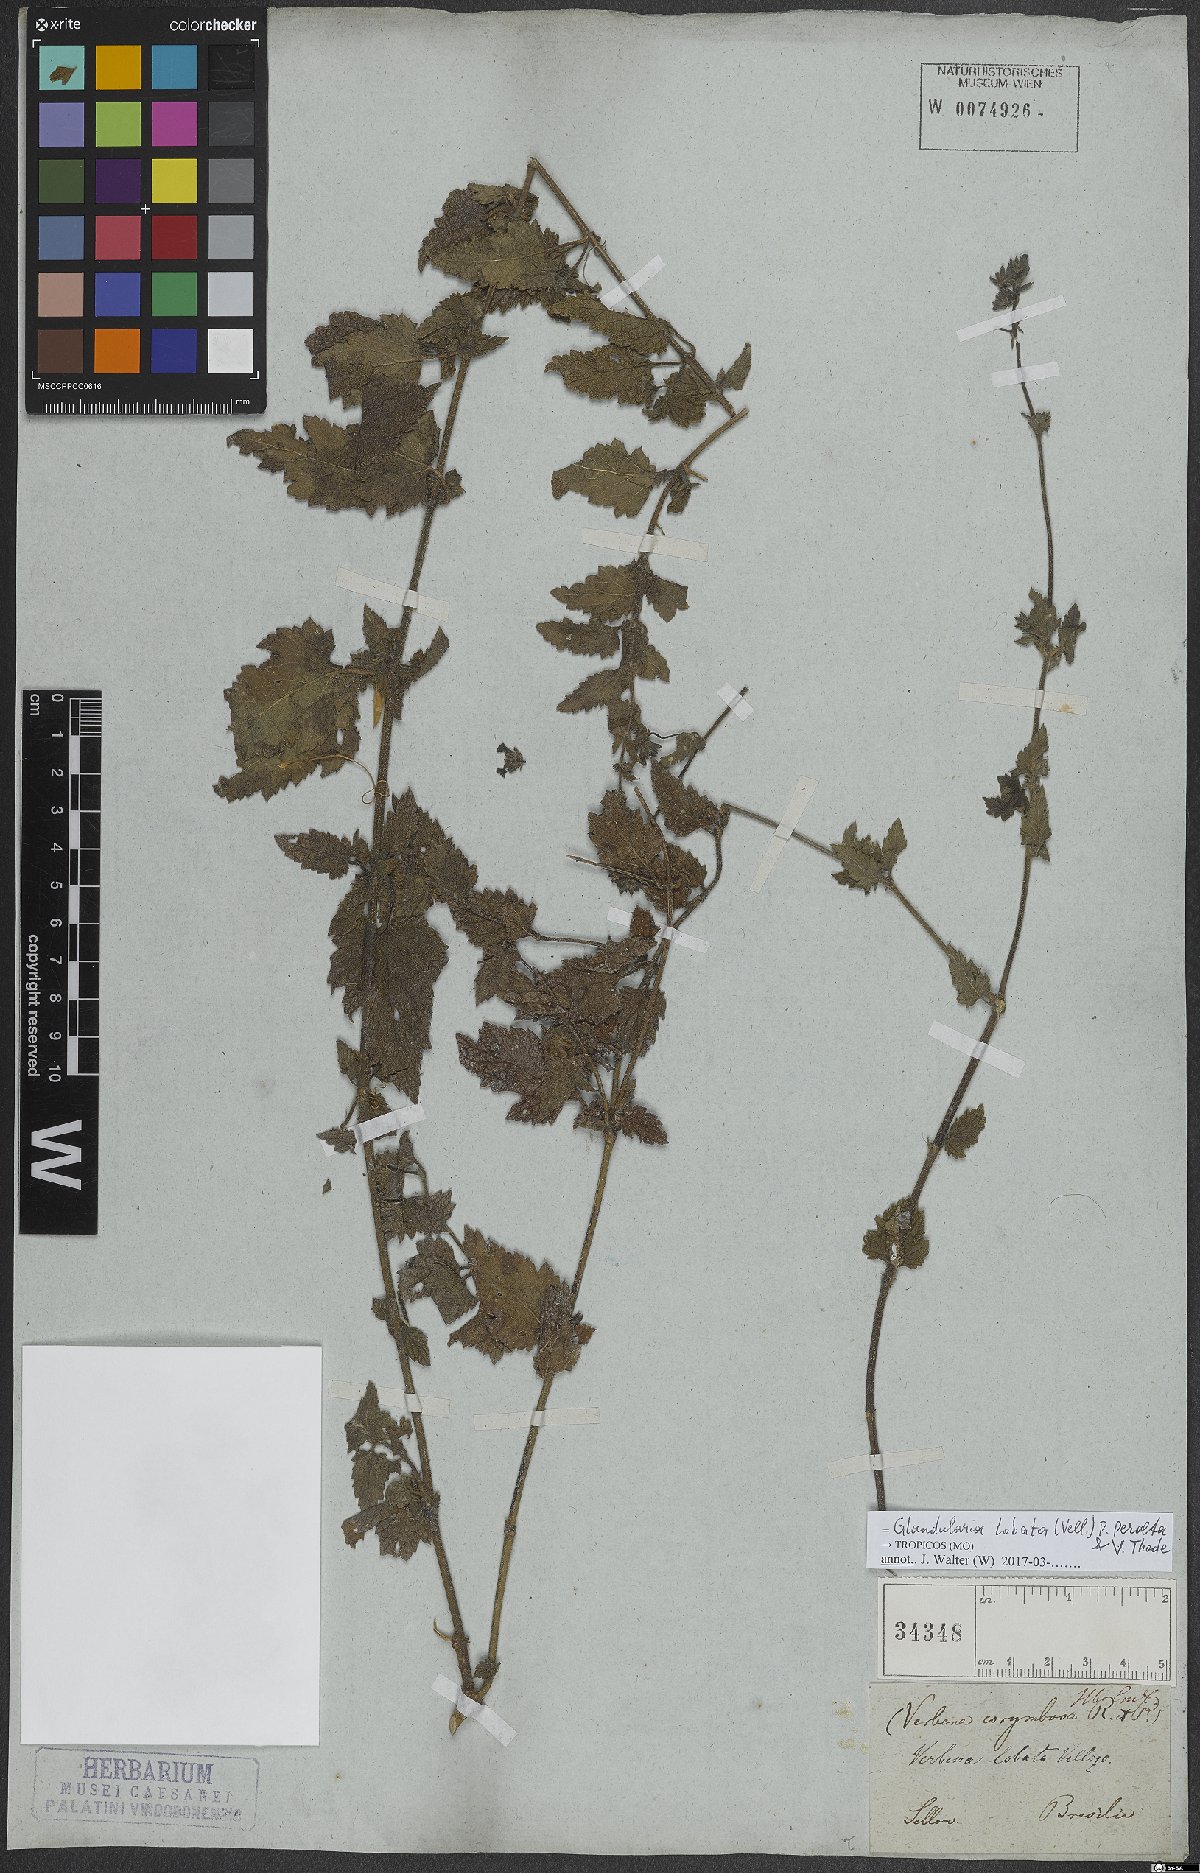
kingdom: Plantae
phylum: Tracheophyta
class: Magnoliopsida
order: Lamiales
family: Verbenaceae
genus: Verbena
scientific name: Verbena lobata
